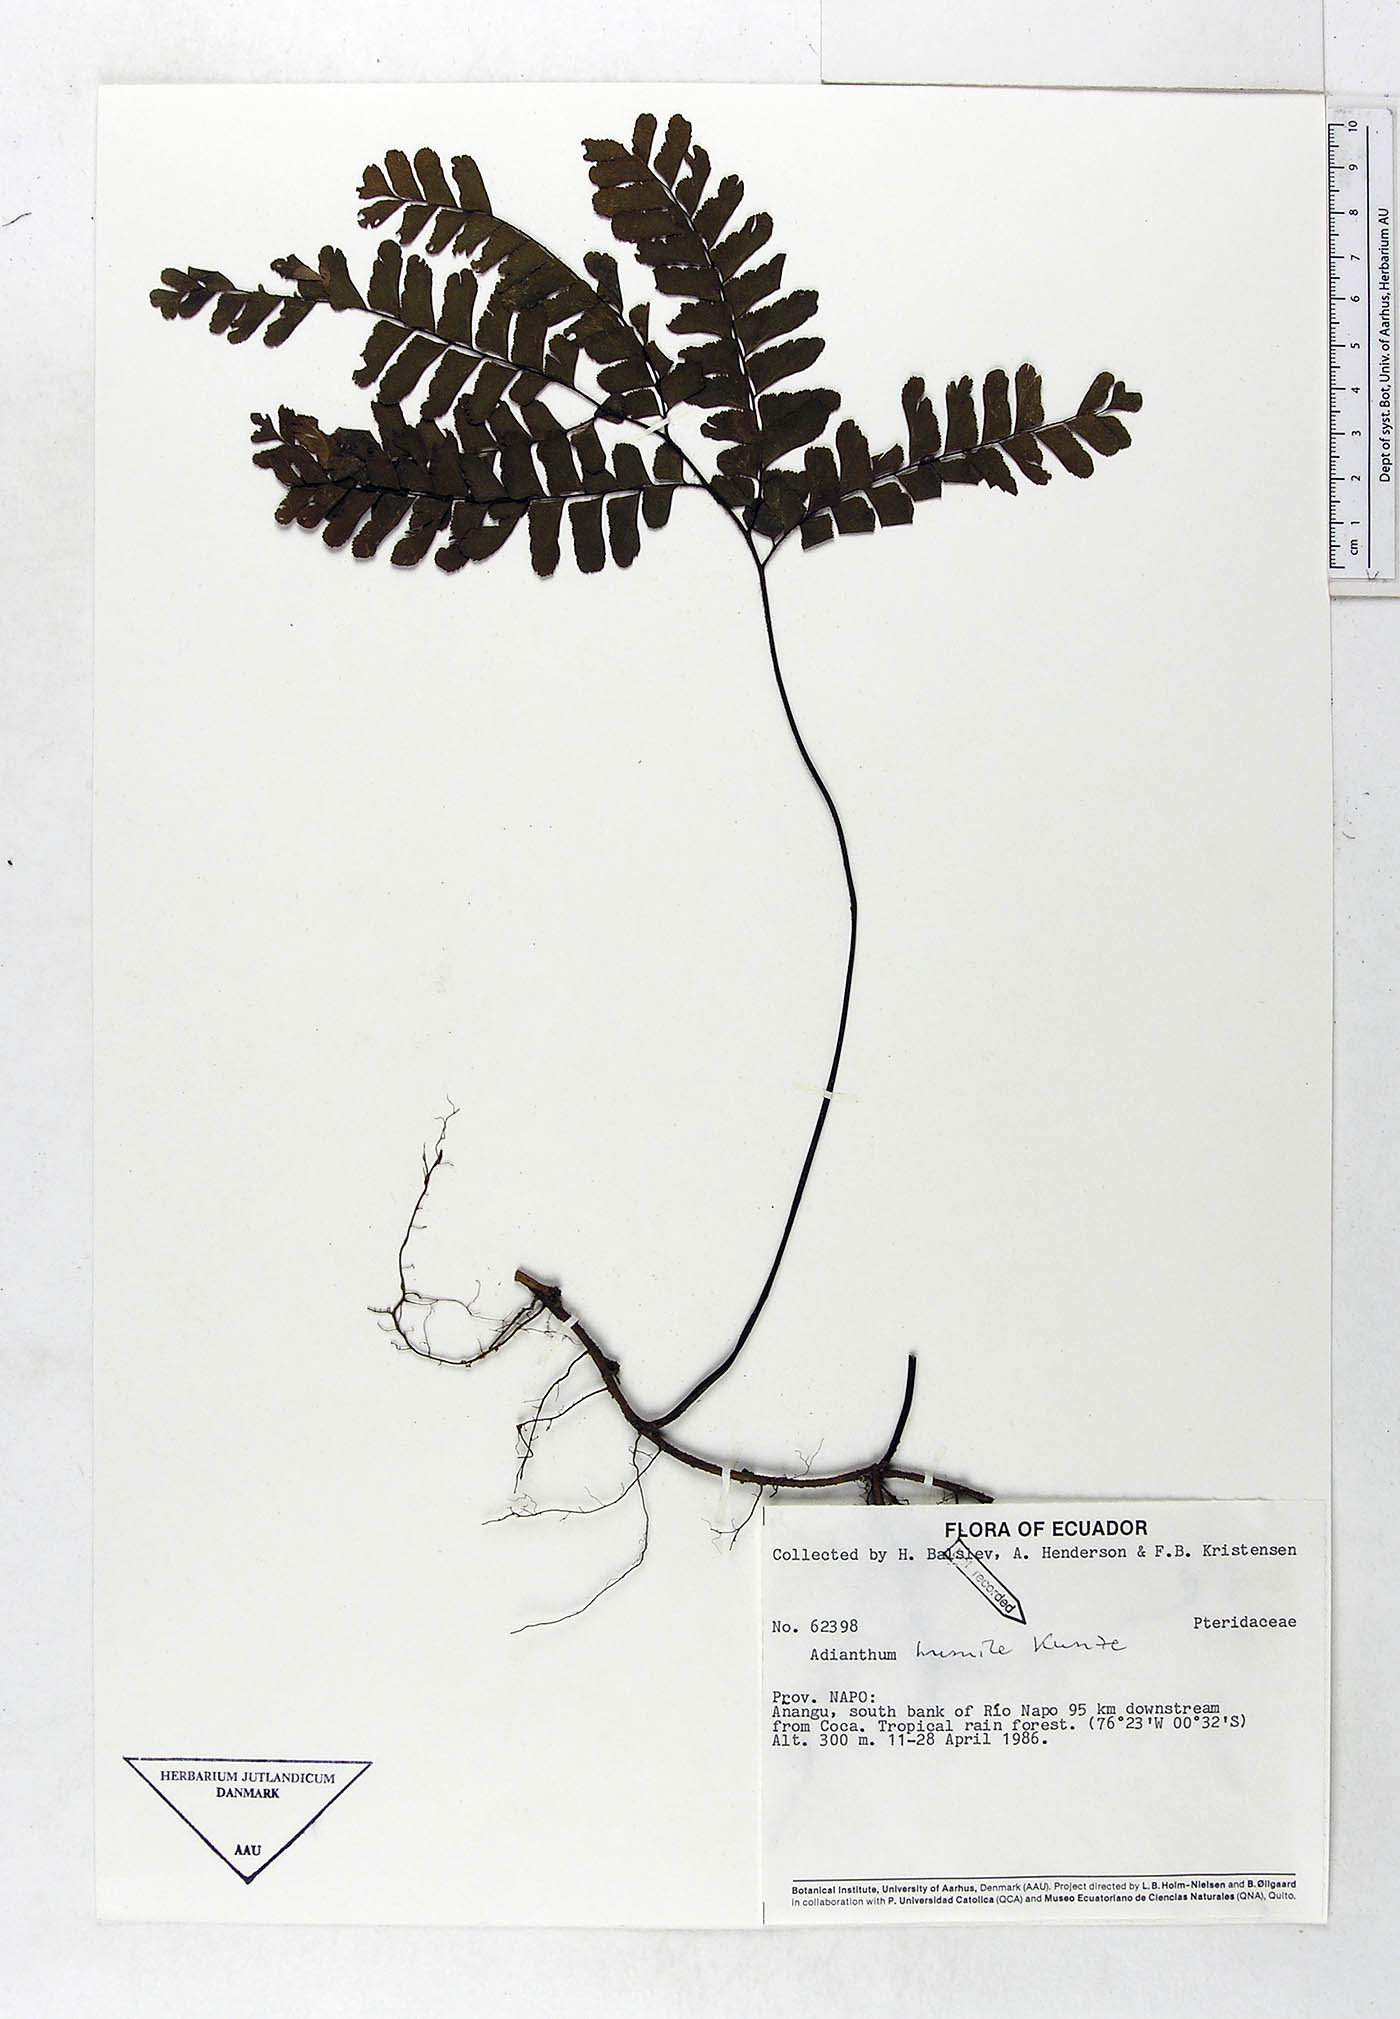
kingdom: Plantae
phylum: Tracheophyta
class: Polypodiopsida
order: Polypodiales
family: Pteridaceae
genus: Adiantum
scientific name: Adiantum humile
